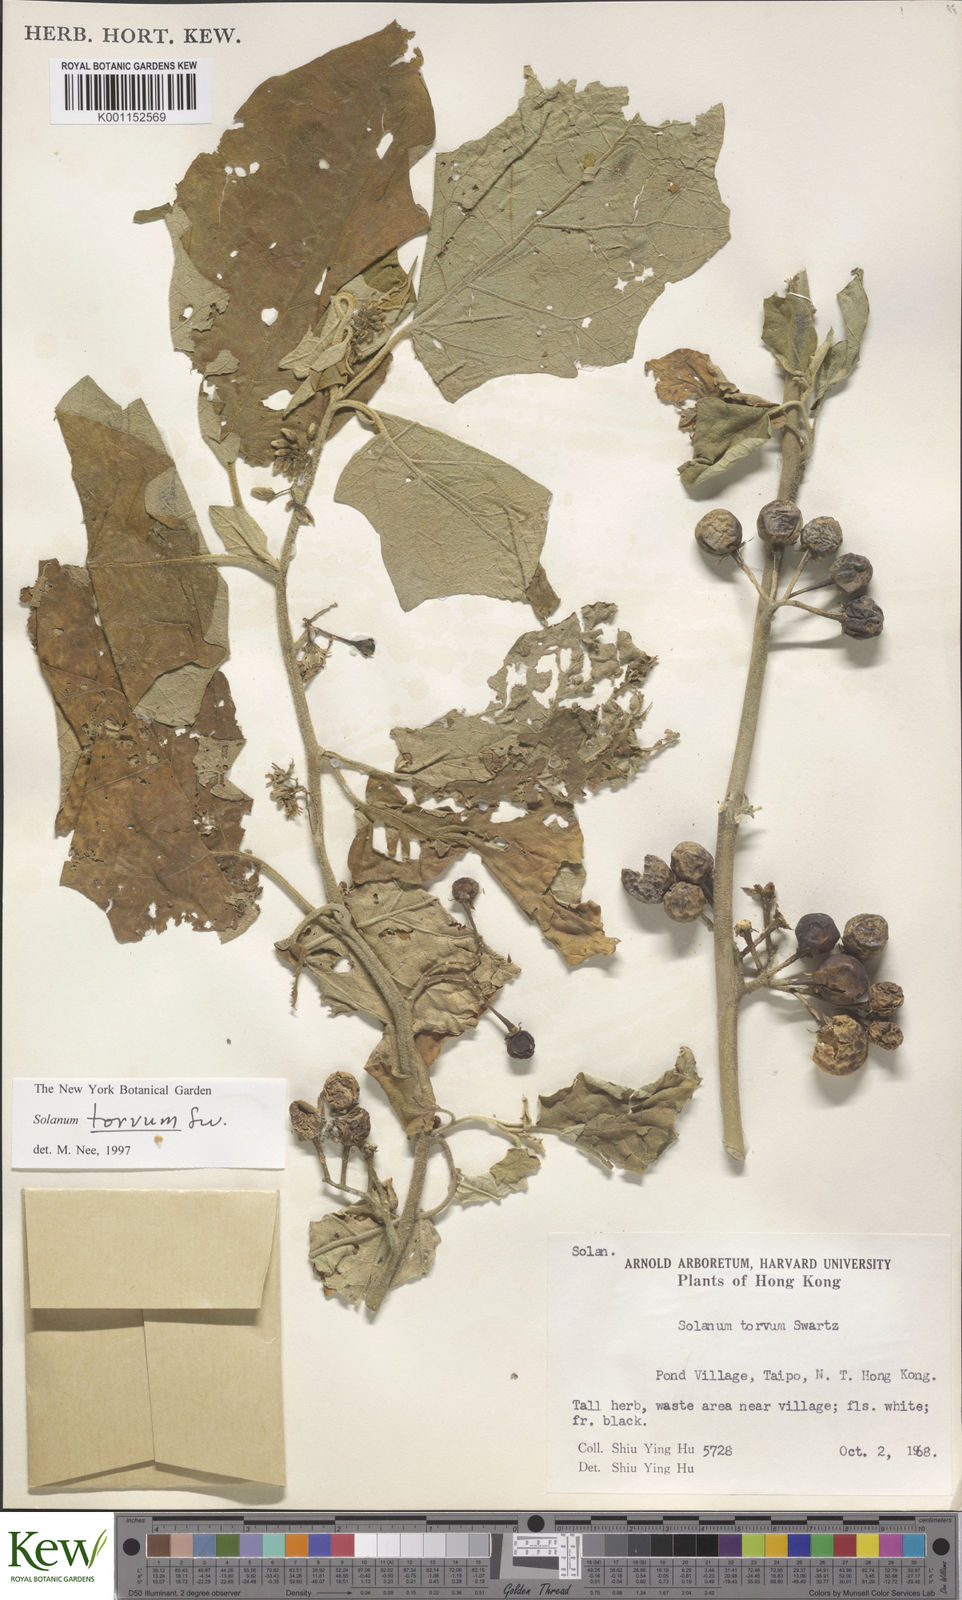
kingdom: Plantae
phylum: Tracheophyta
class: Magnoliopsida
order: Solanales
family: Solanaceae
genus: Solanum
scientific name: Solanum torvum
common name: Turkey berry
